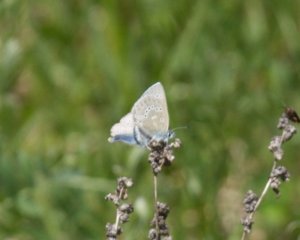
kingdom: Animalia
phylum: Arthropoda
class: Insecta
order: Lepidoptera
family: Lycaenidae
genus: Glaucopsyche
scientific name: Glaucopsyche lygdamus
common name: Silvery Blue
